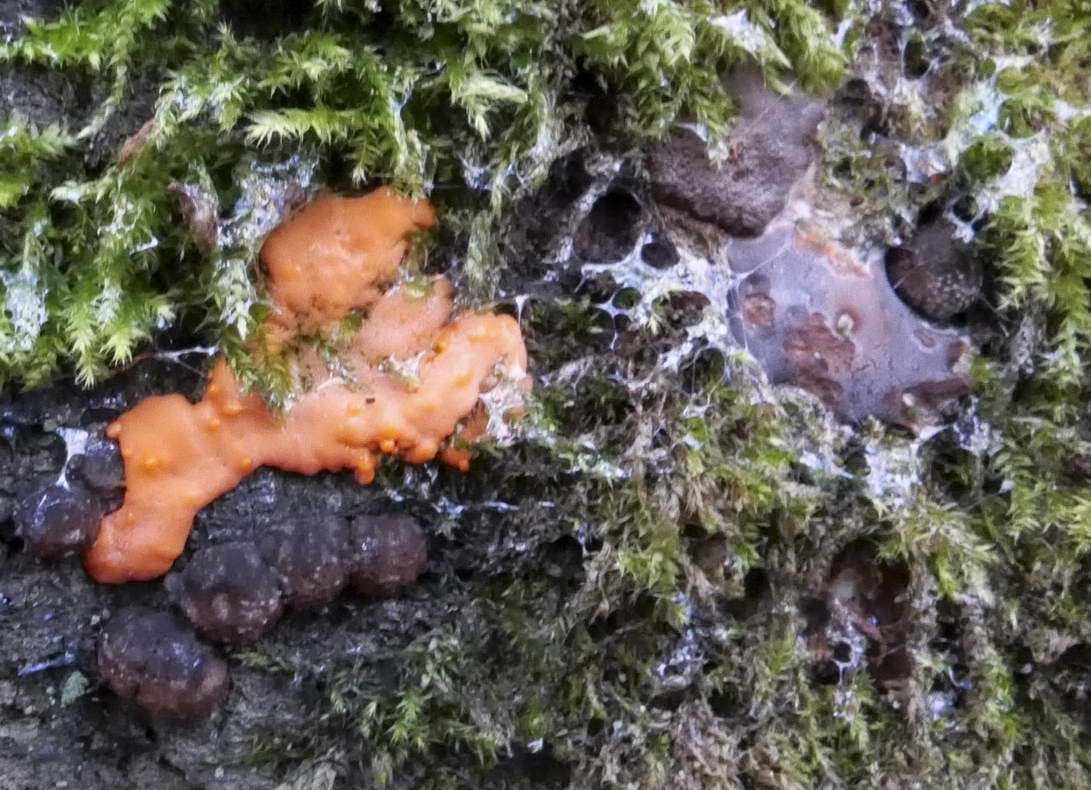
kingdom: Protozoa
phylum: Mycetozoa
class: Myxomycetes
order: Trichiales
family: Dictydiaethaliaceae
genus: Dictydiaethalium
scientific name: Dictydiaethalium plumbeum
